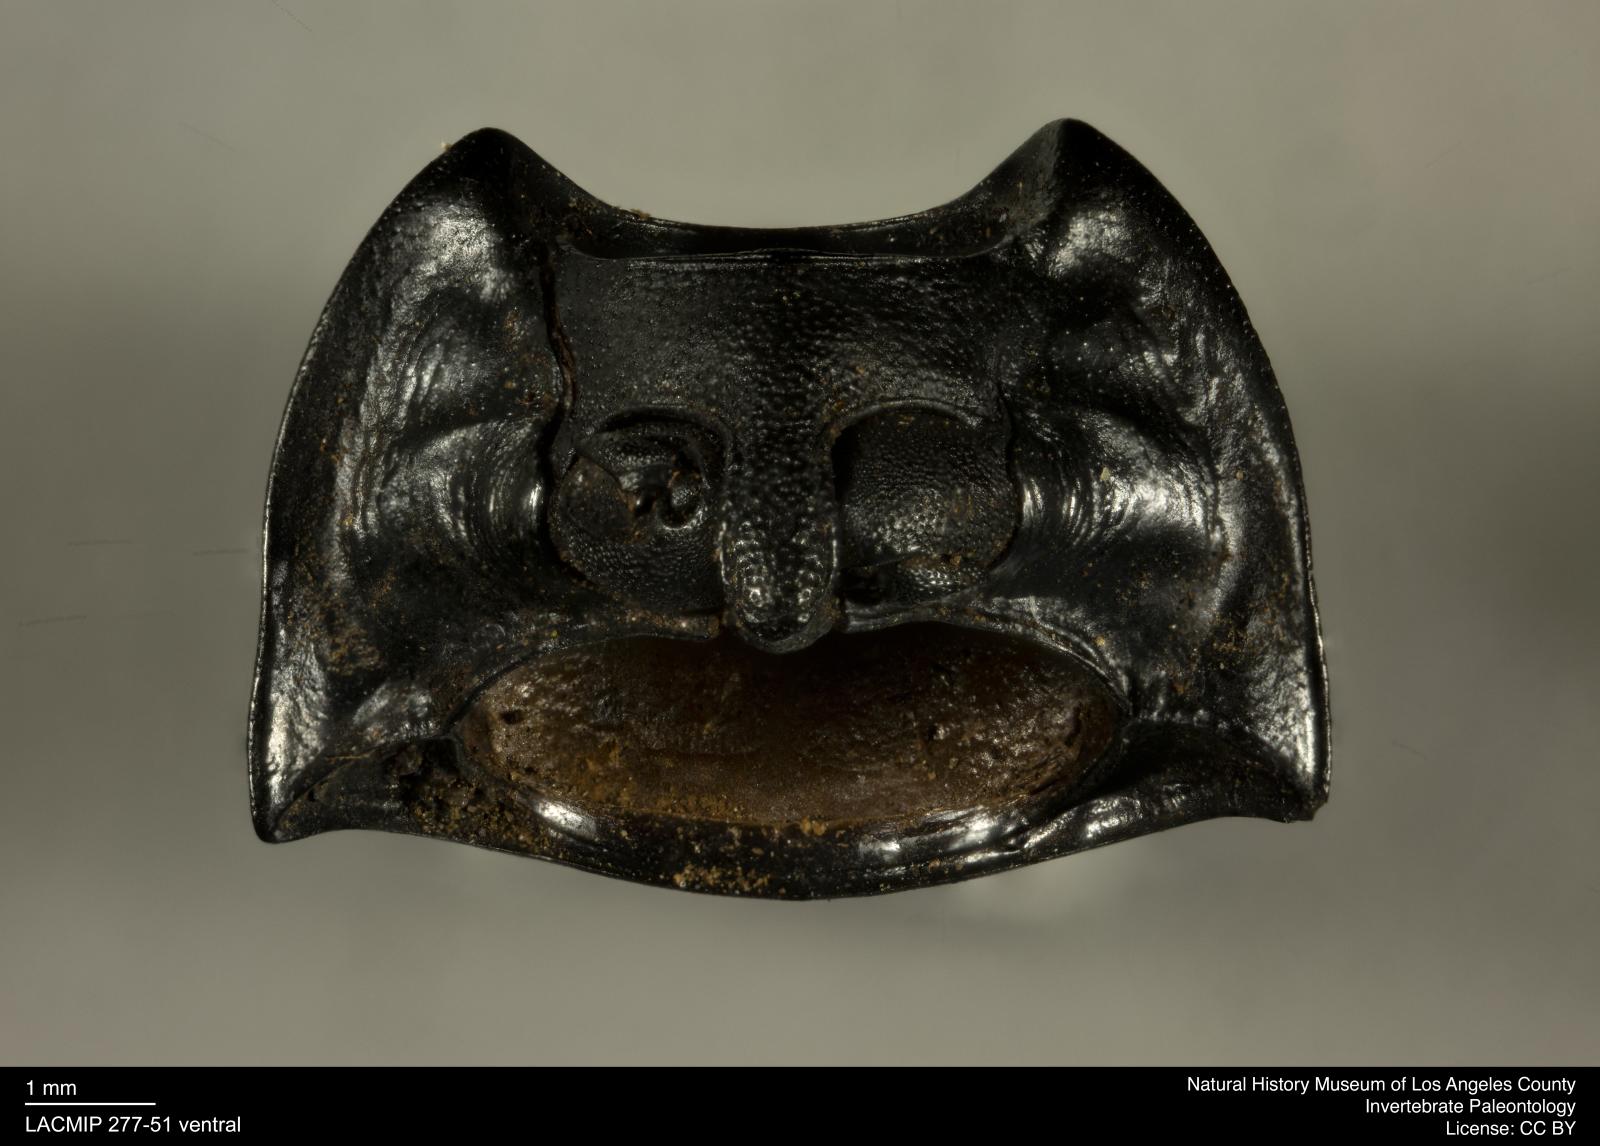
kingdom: Animalia
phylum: Arthropoda
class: Insecta
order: Coleoptera
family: Tenebrionidae
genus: Coniontis
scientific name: Coniontis abdominalis
